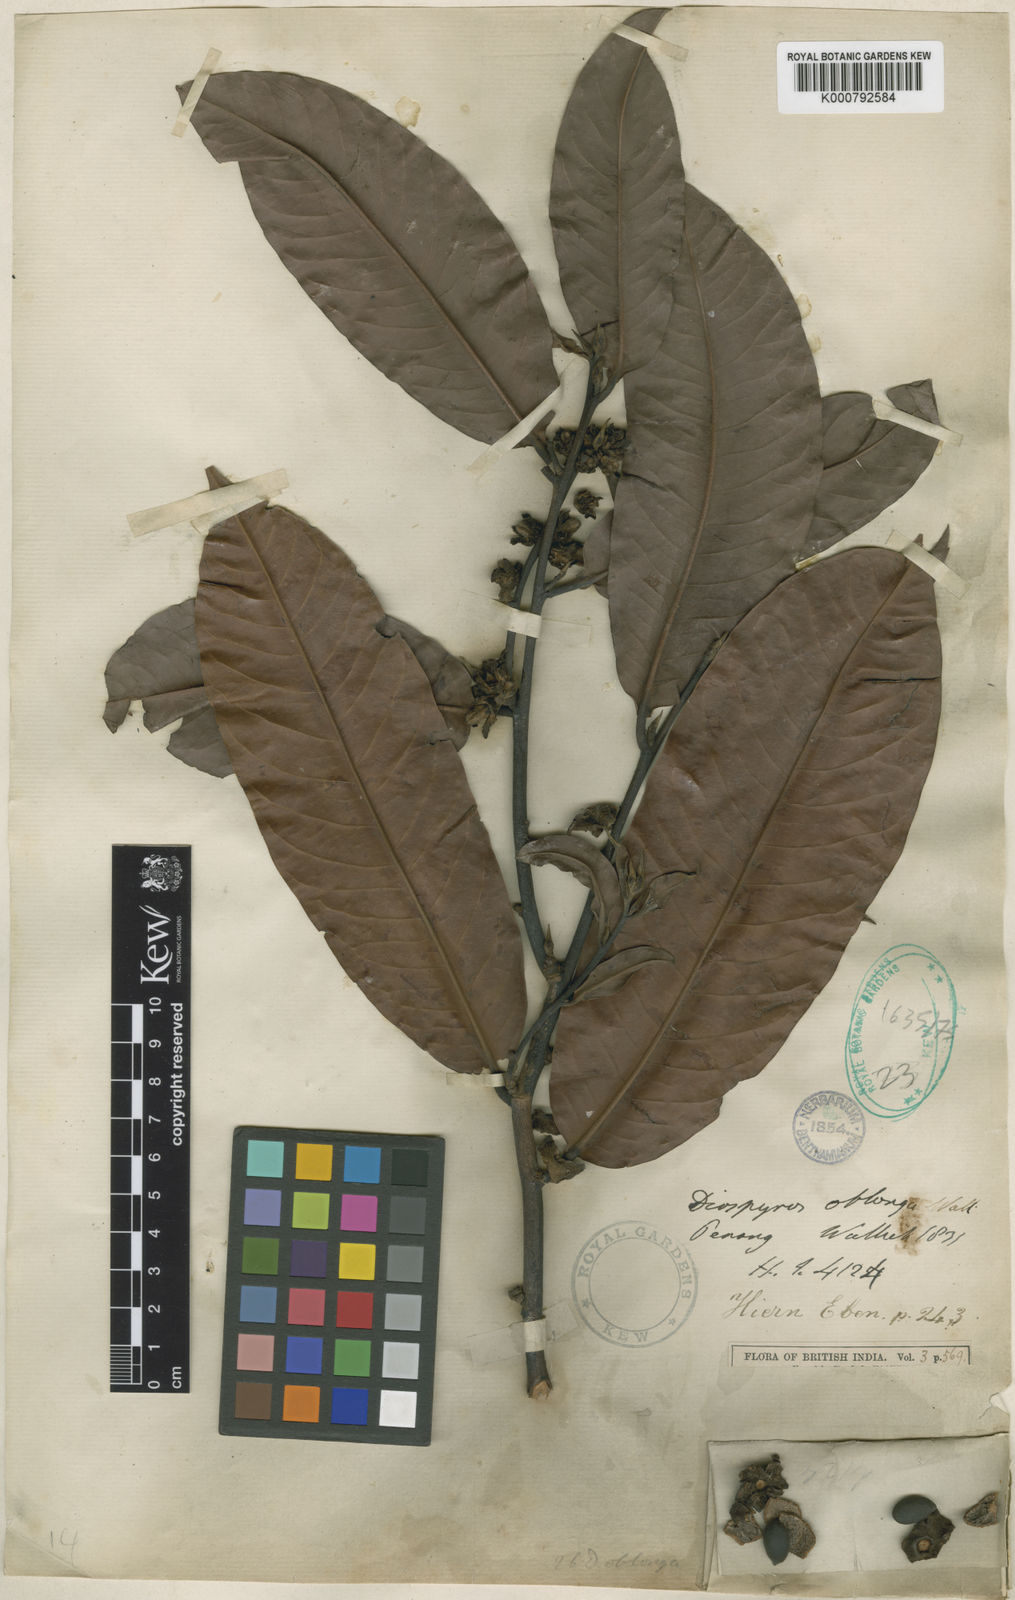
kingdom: Plantae
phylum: Tracheophyta
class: Magnoliopsida
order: Ericales
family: Ebenaceae
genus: Diospyros
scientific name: Diospyros oblonga
